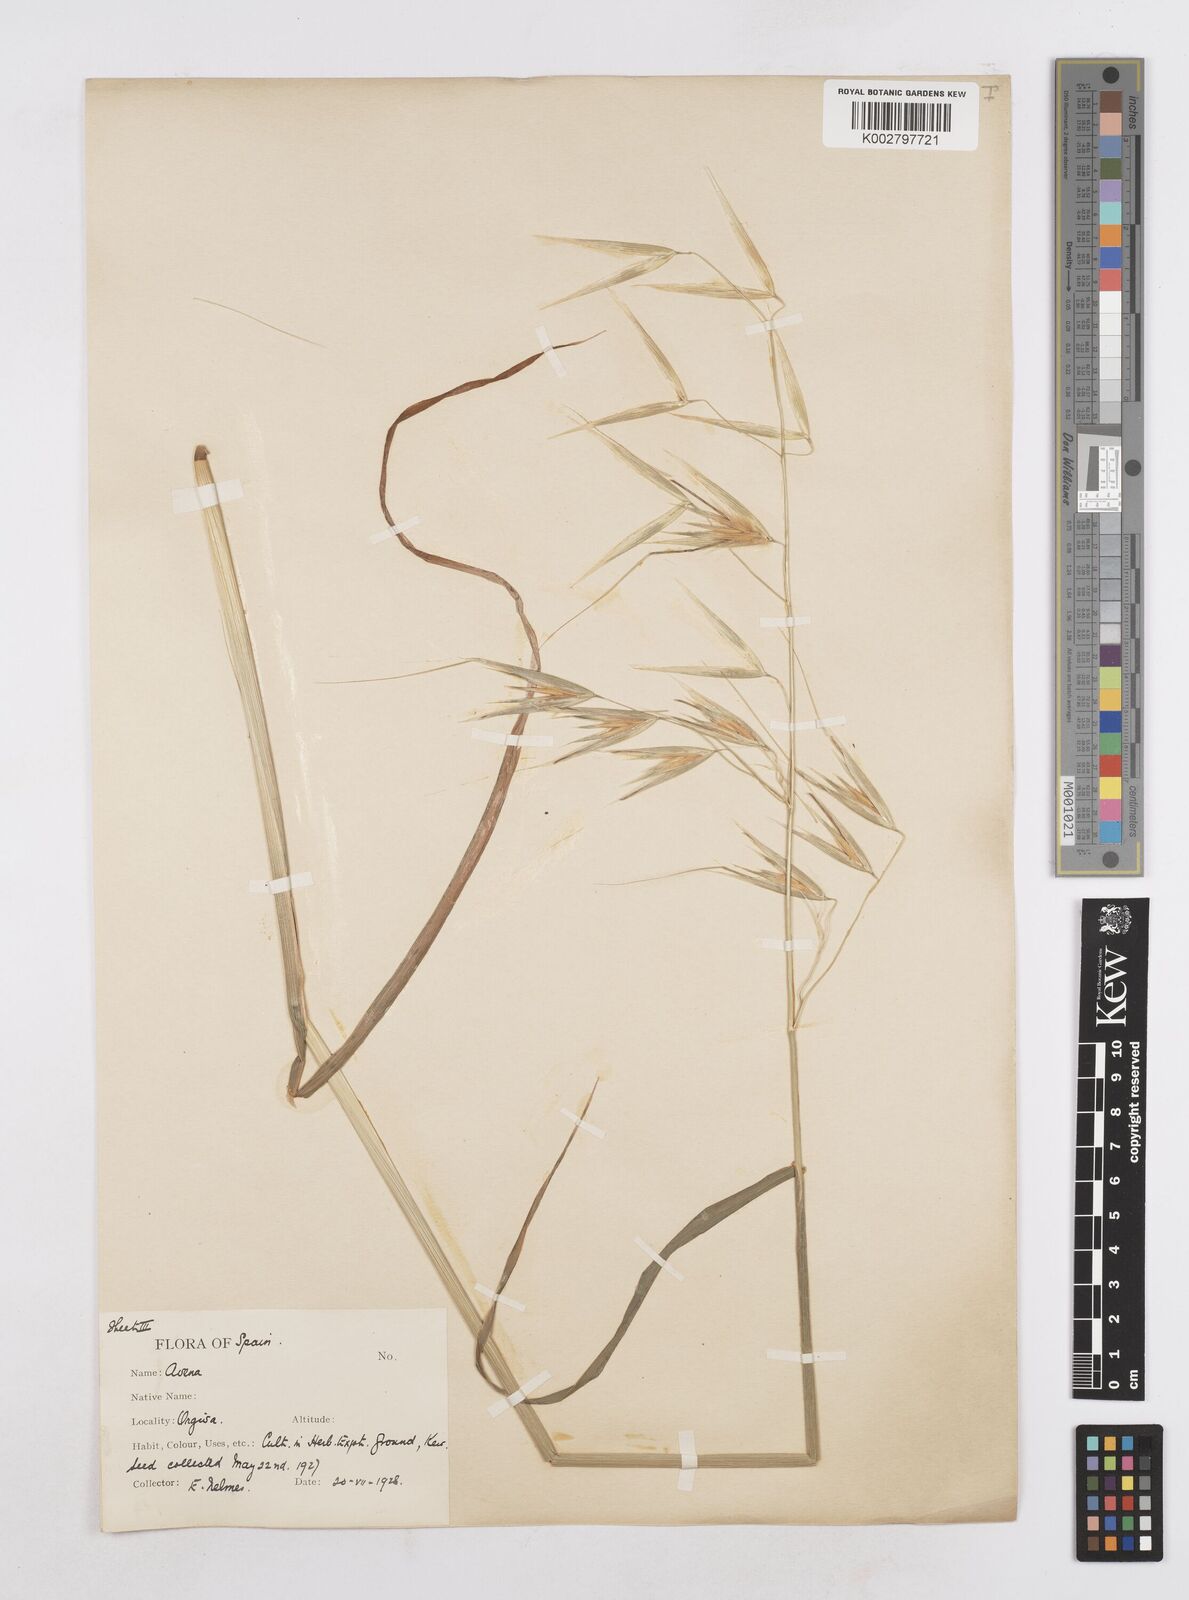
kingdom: Plantae
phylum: Tracheophyta
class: Liliopsida
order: Poales
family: Poaceae
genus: Avena
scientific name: Avena sterilis
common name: Animated oat
